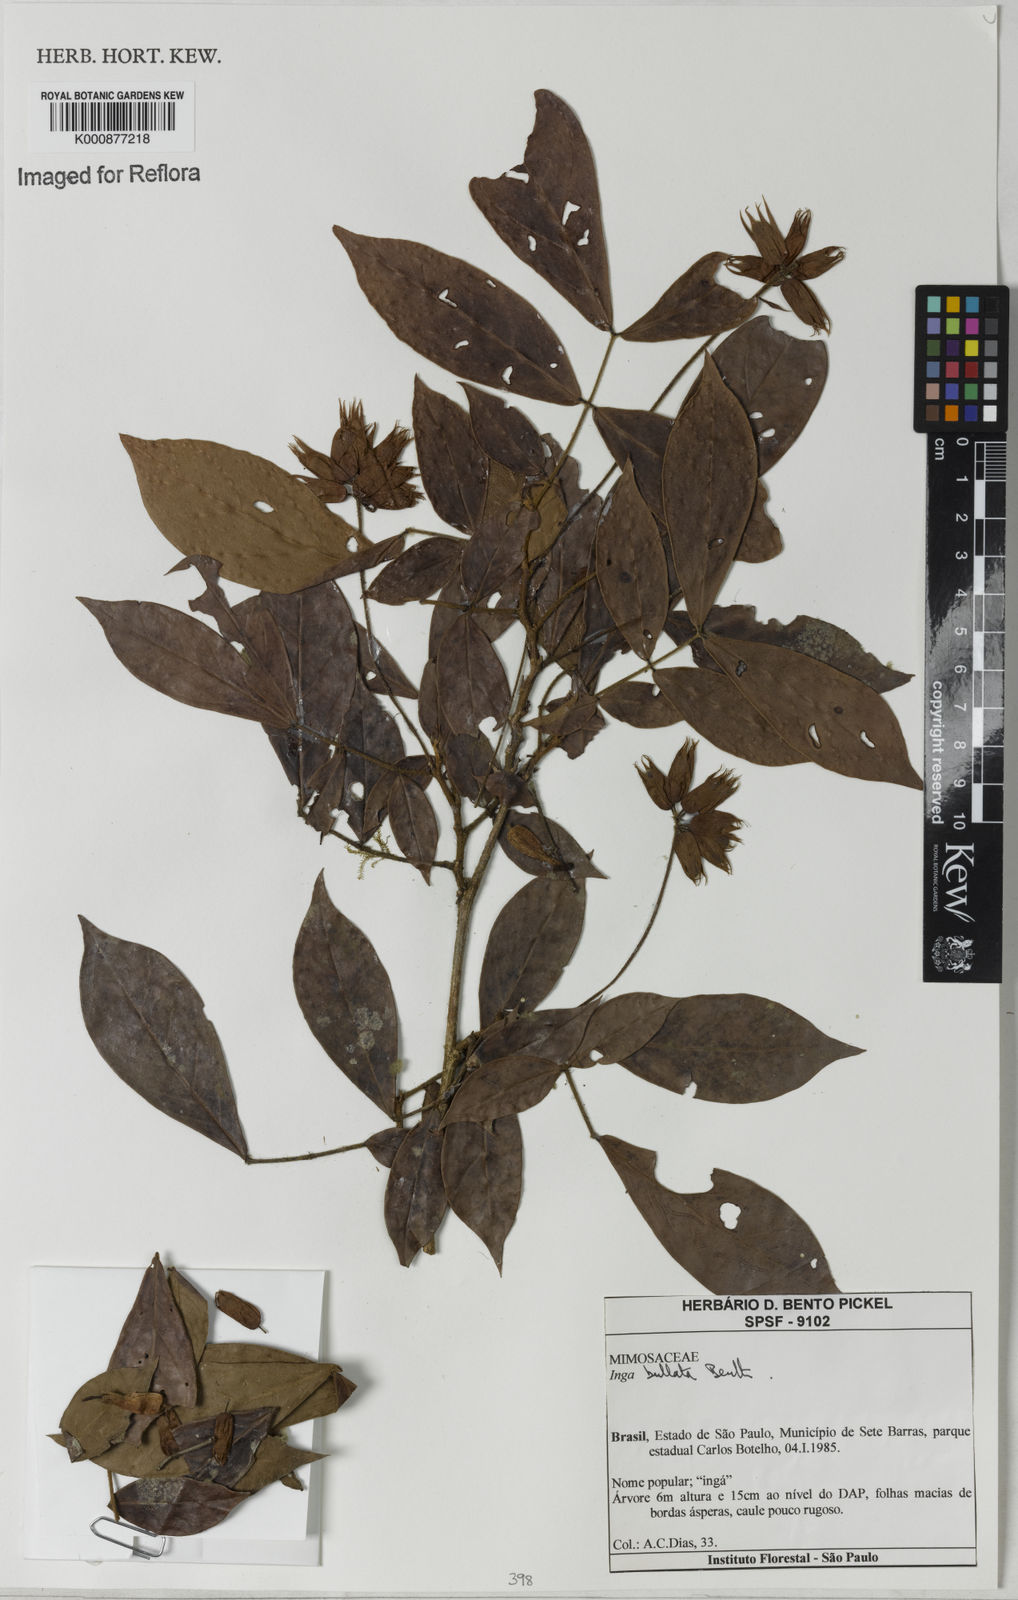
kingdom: Plantae
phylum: Tracheophyta
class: Magnoliopsida
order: Fabales
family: Fabaceae
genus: Inga
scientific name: Inga bullata
